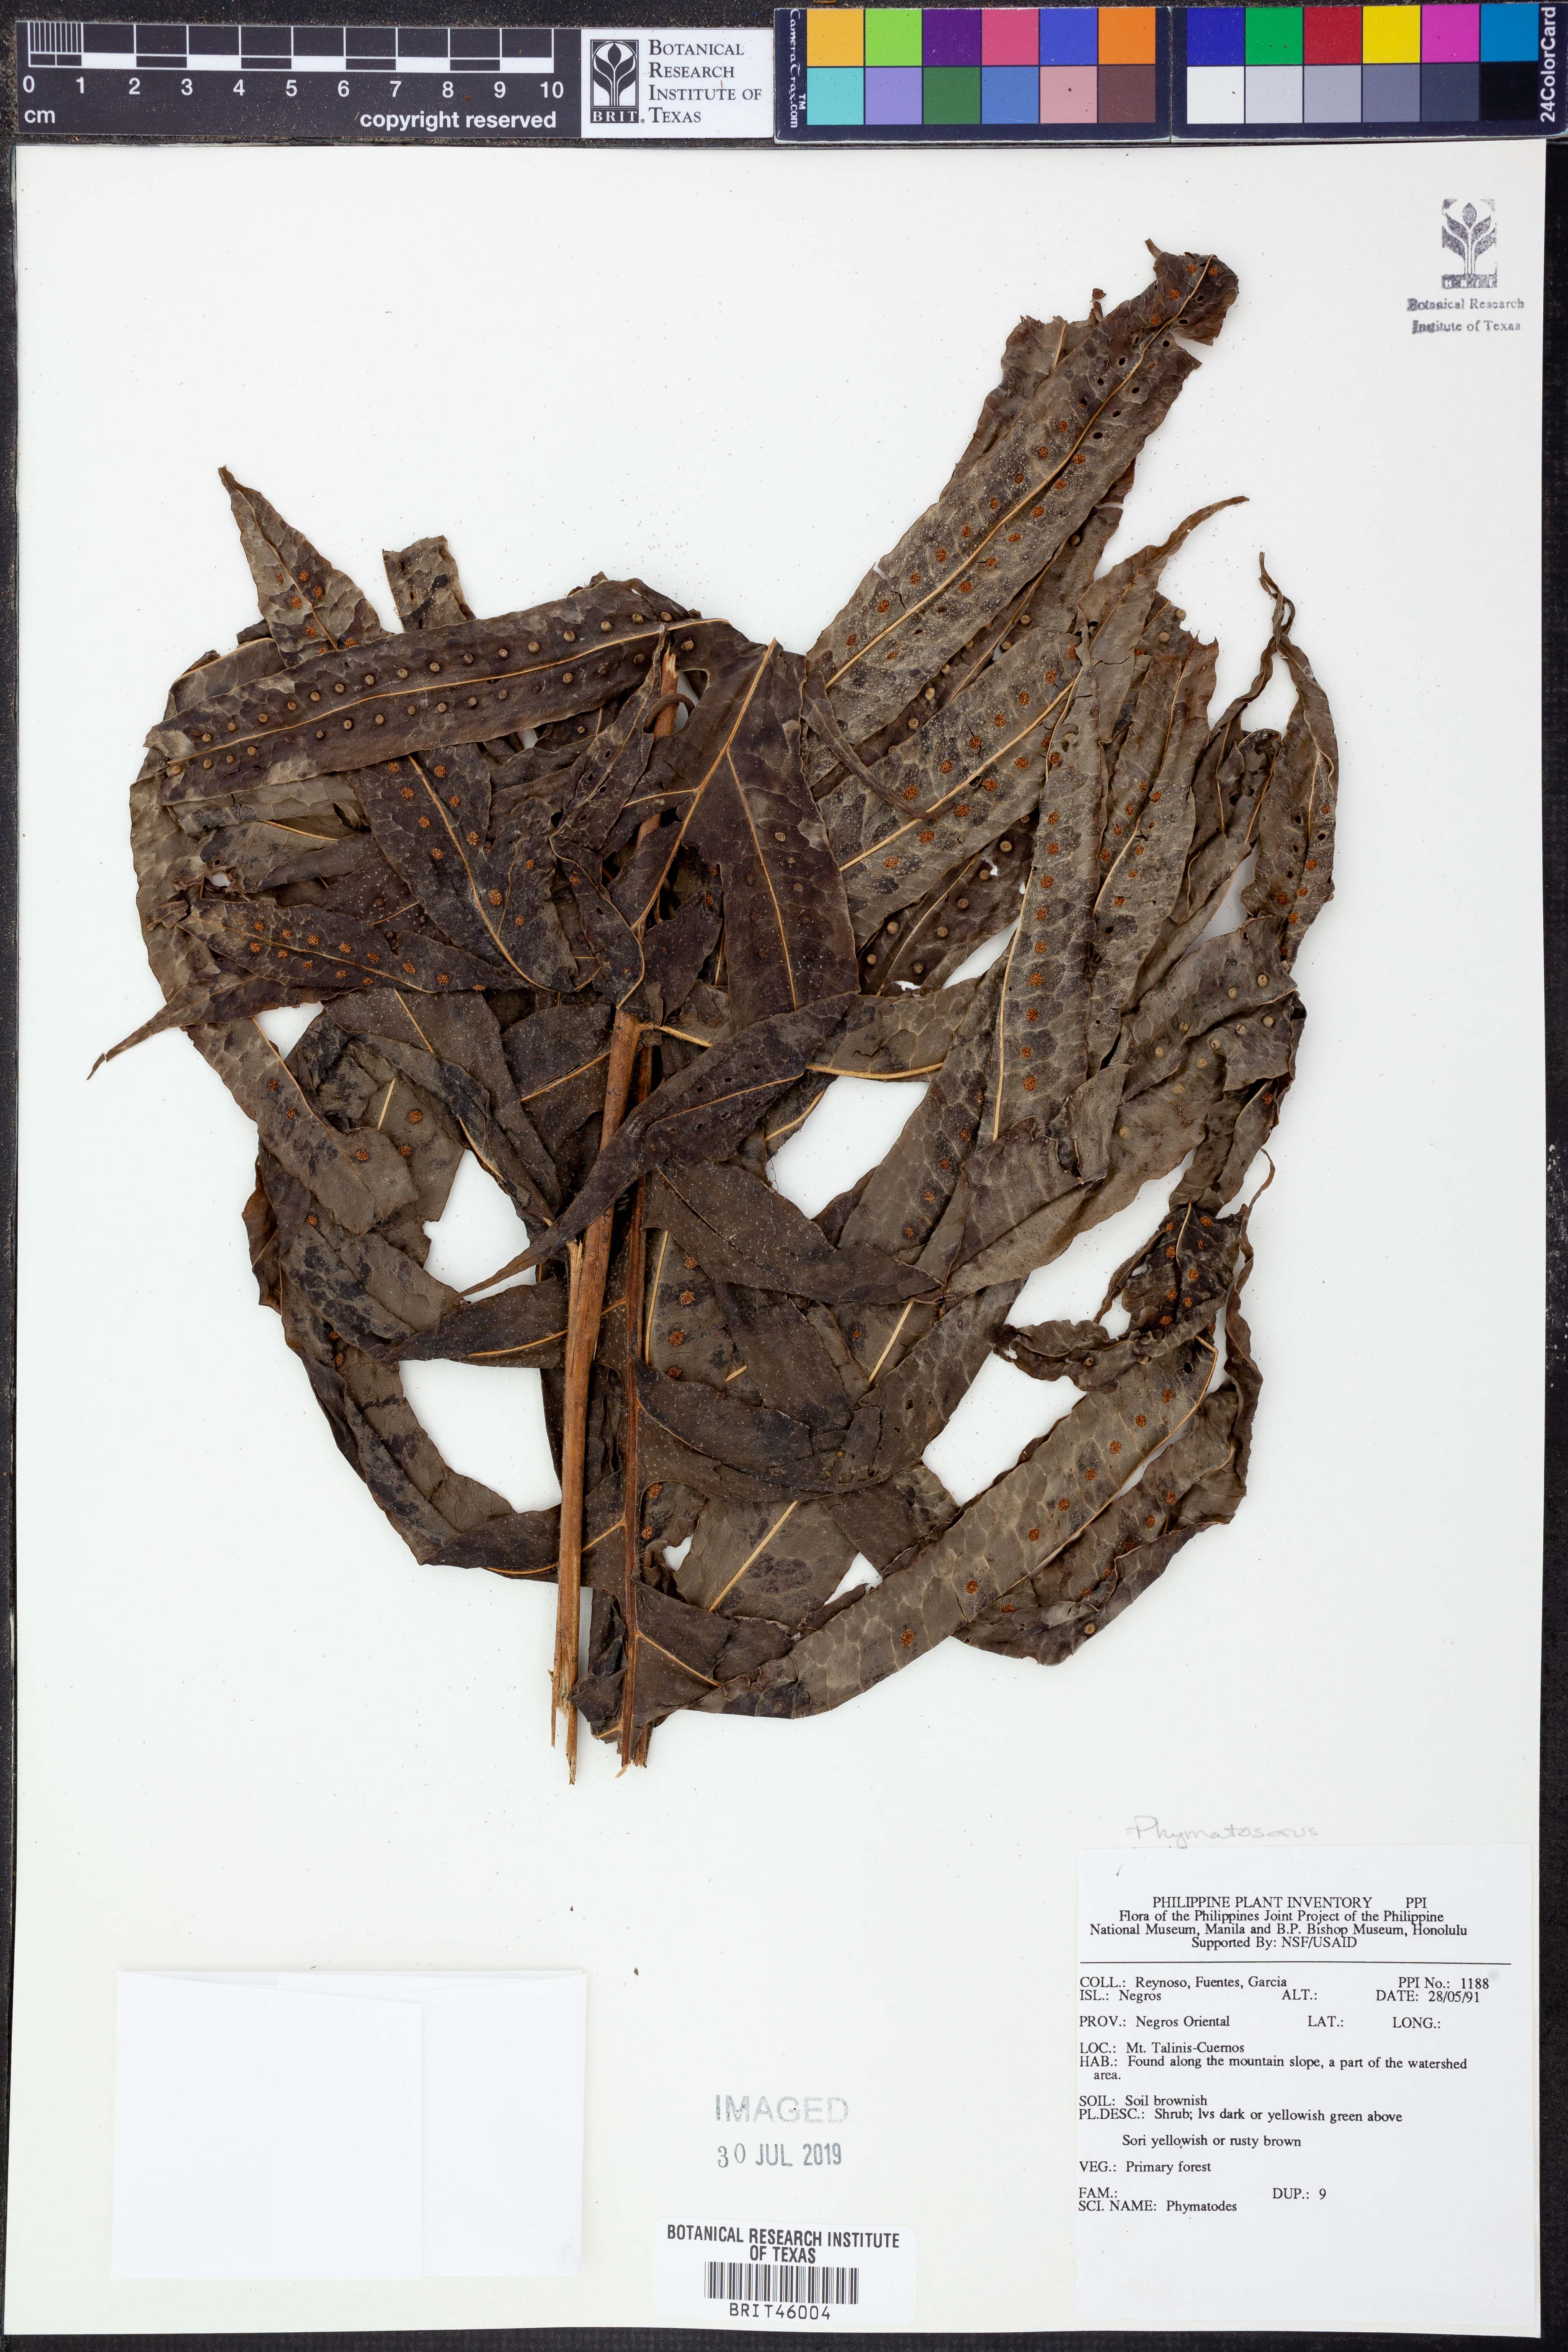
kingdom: Plantae
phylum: Tracheophyta
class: Polypodiopsida
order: Polypodiales
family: Polypodiaceae
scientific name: Polypodiaceae
